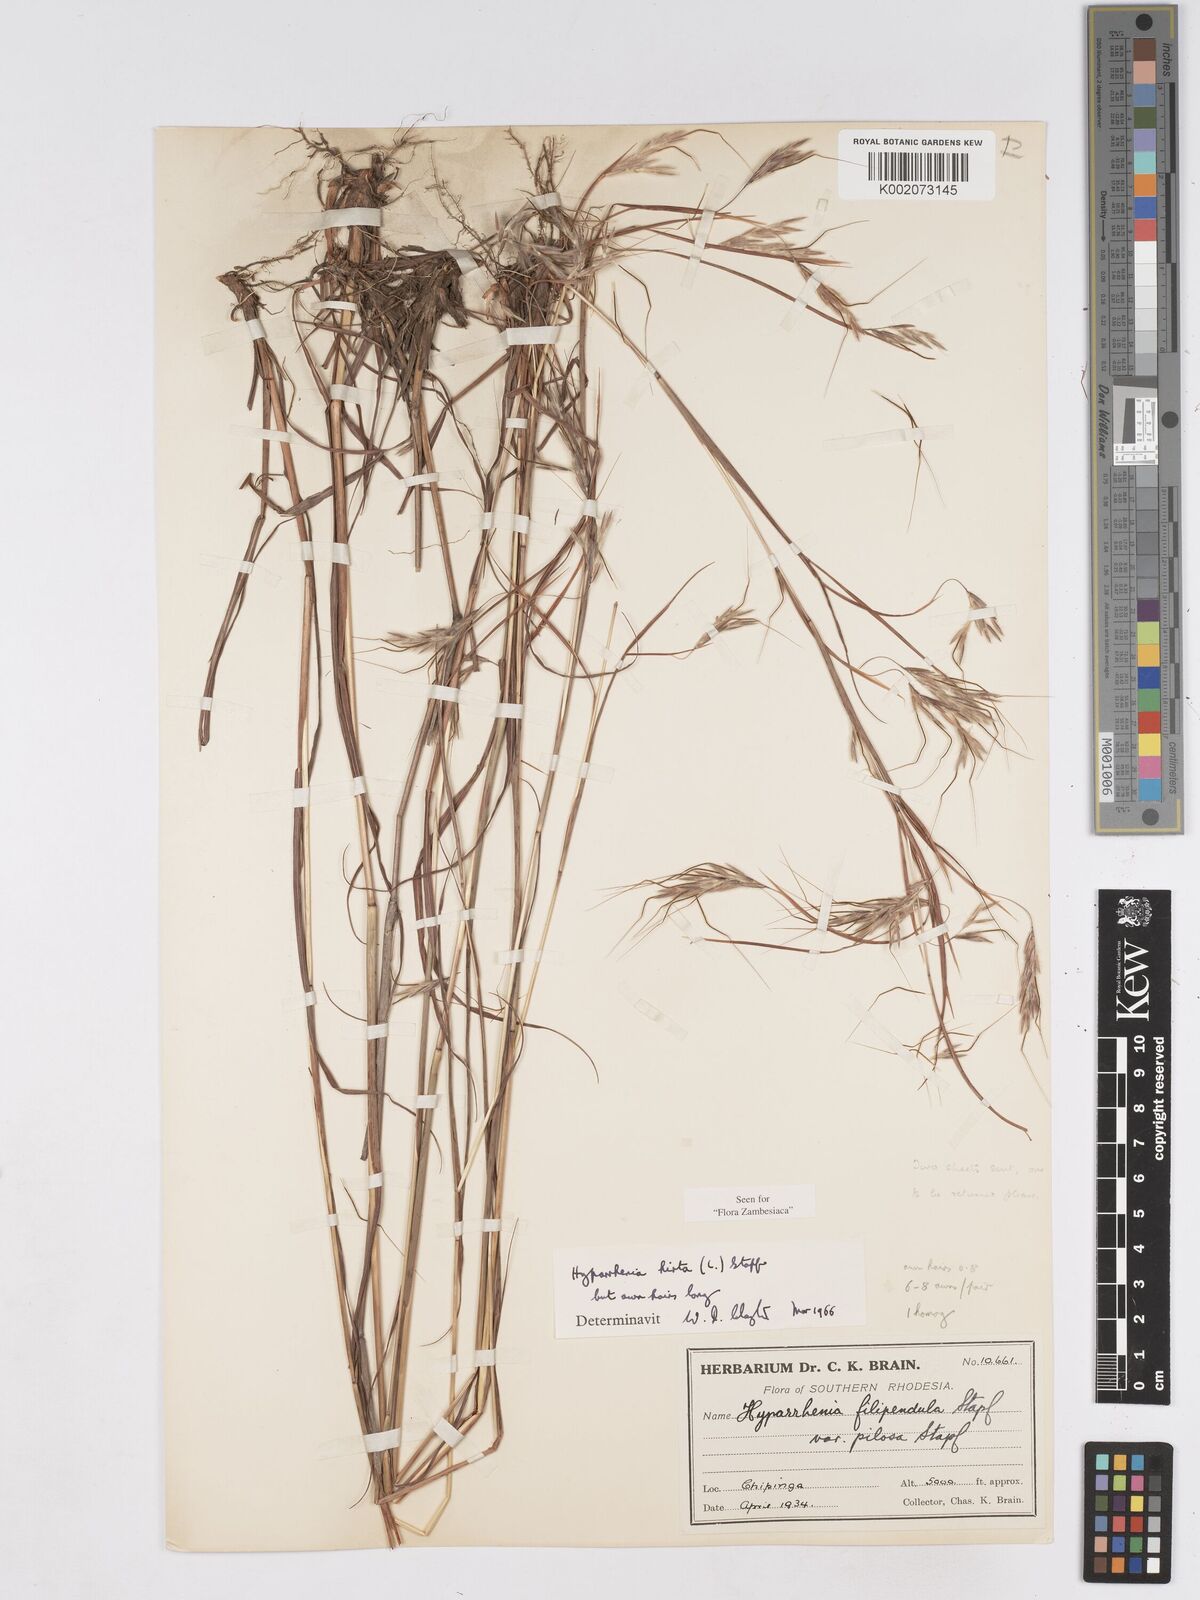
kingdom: Plantae
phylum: Tracheophyta
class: Liliopsida
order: Poales
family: Poaceae
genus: Hyparrhenia
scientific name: Hyparrhenia hirta
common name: Thatching grass
